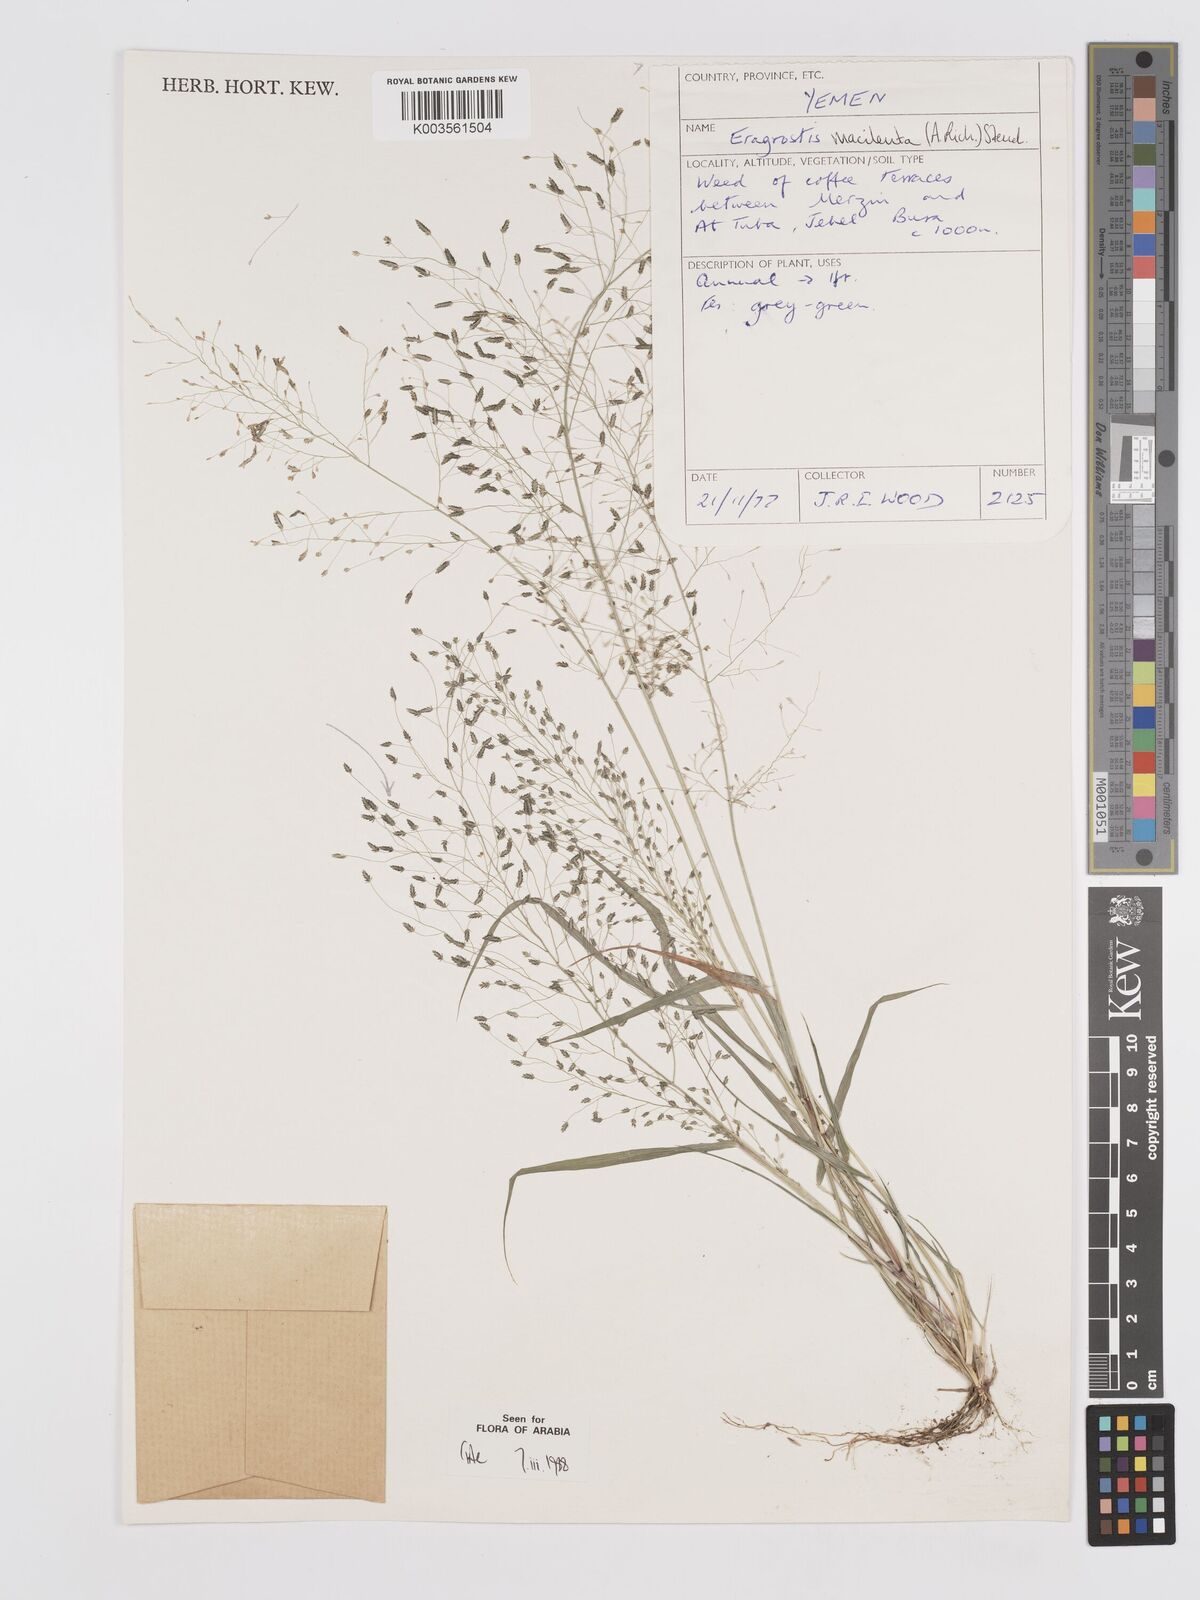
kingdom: Plantae
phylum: Tracheophyta
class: Liliopsida
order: Poales
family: Poaceae
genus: Eragrostis
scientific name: Eragrostis macilenta
